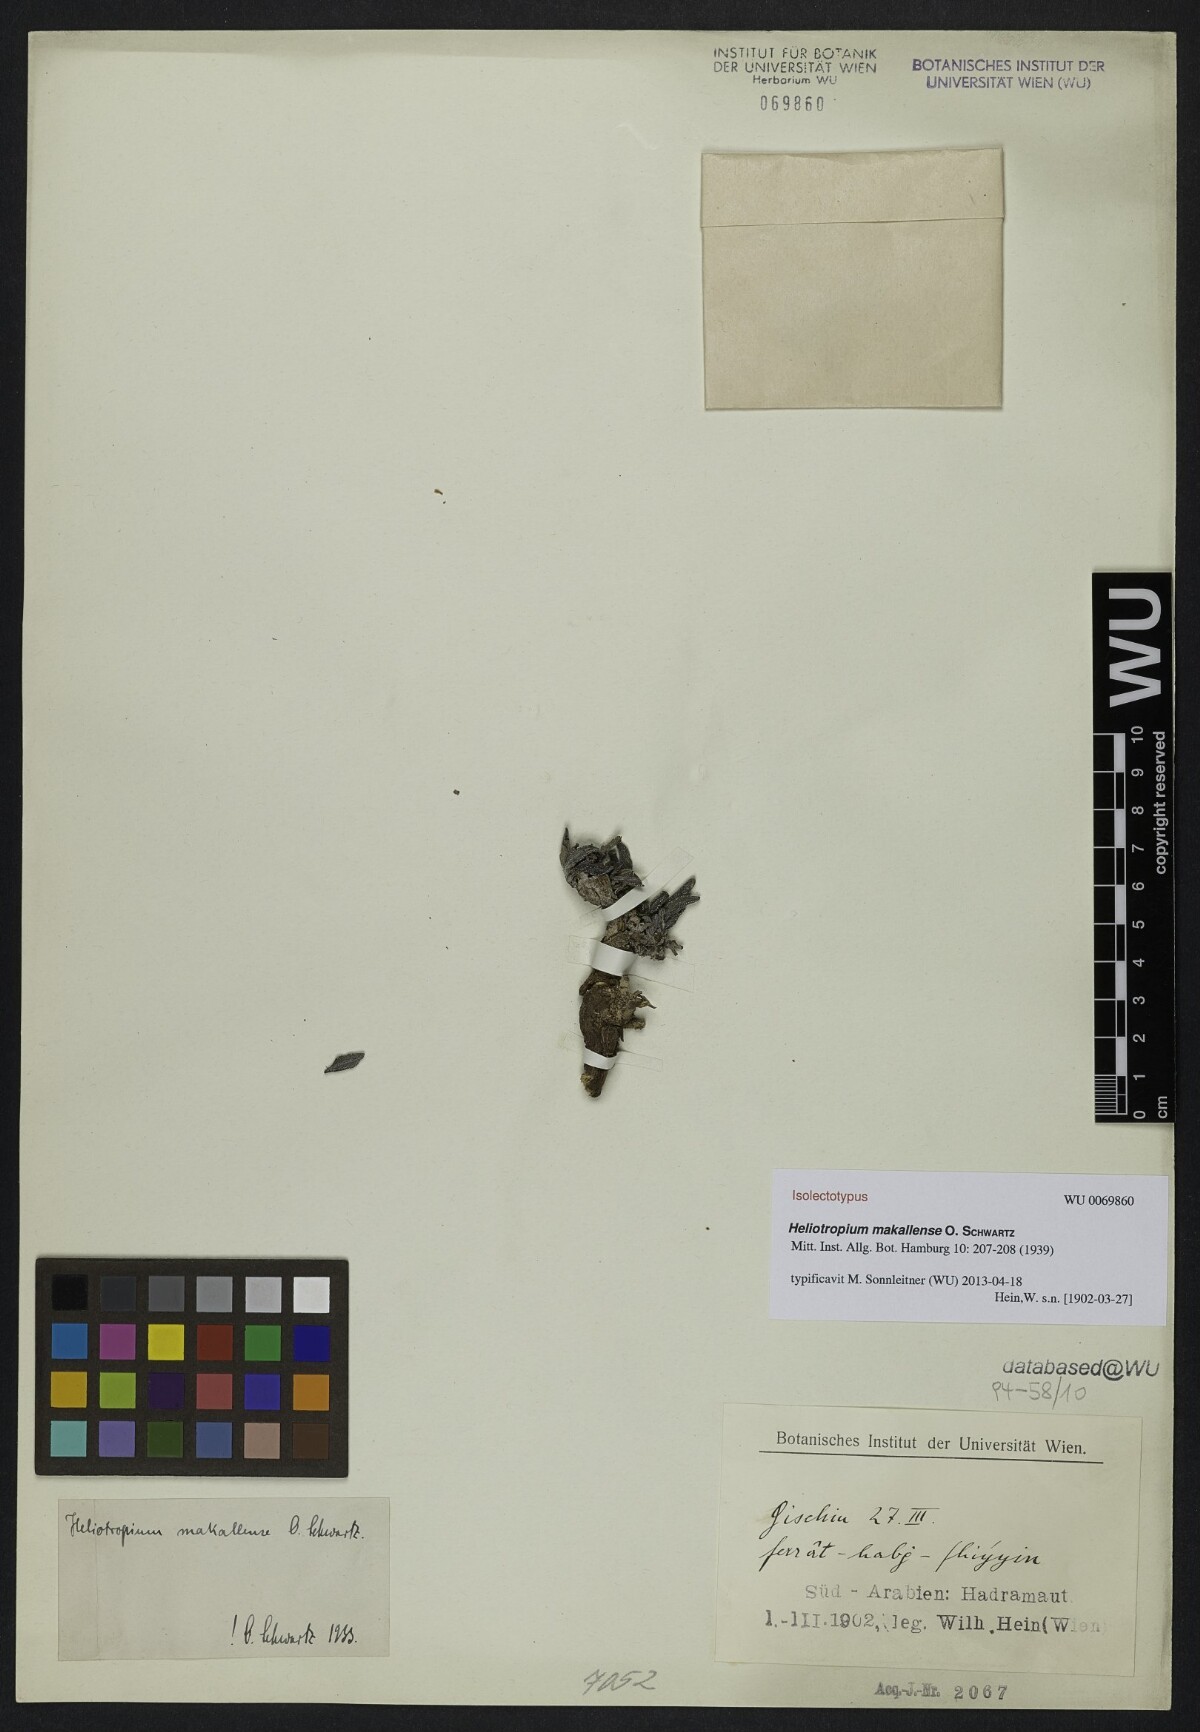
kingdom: Plantae
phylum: Tracheophyta
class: Magnoliopsida
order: Boraginales
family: Heliotropiaceae
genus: Heliotropium
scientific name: Heliotropium bacciferum
